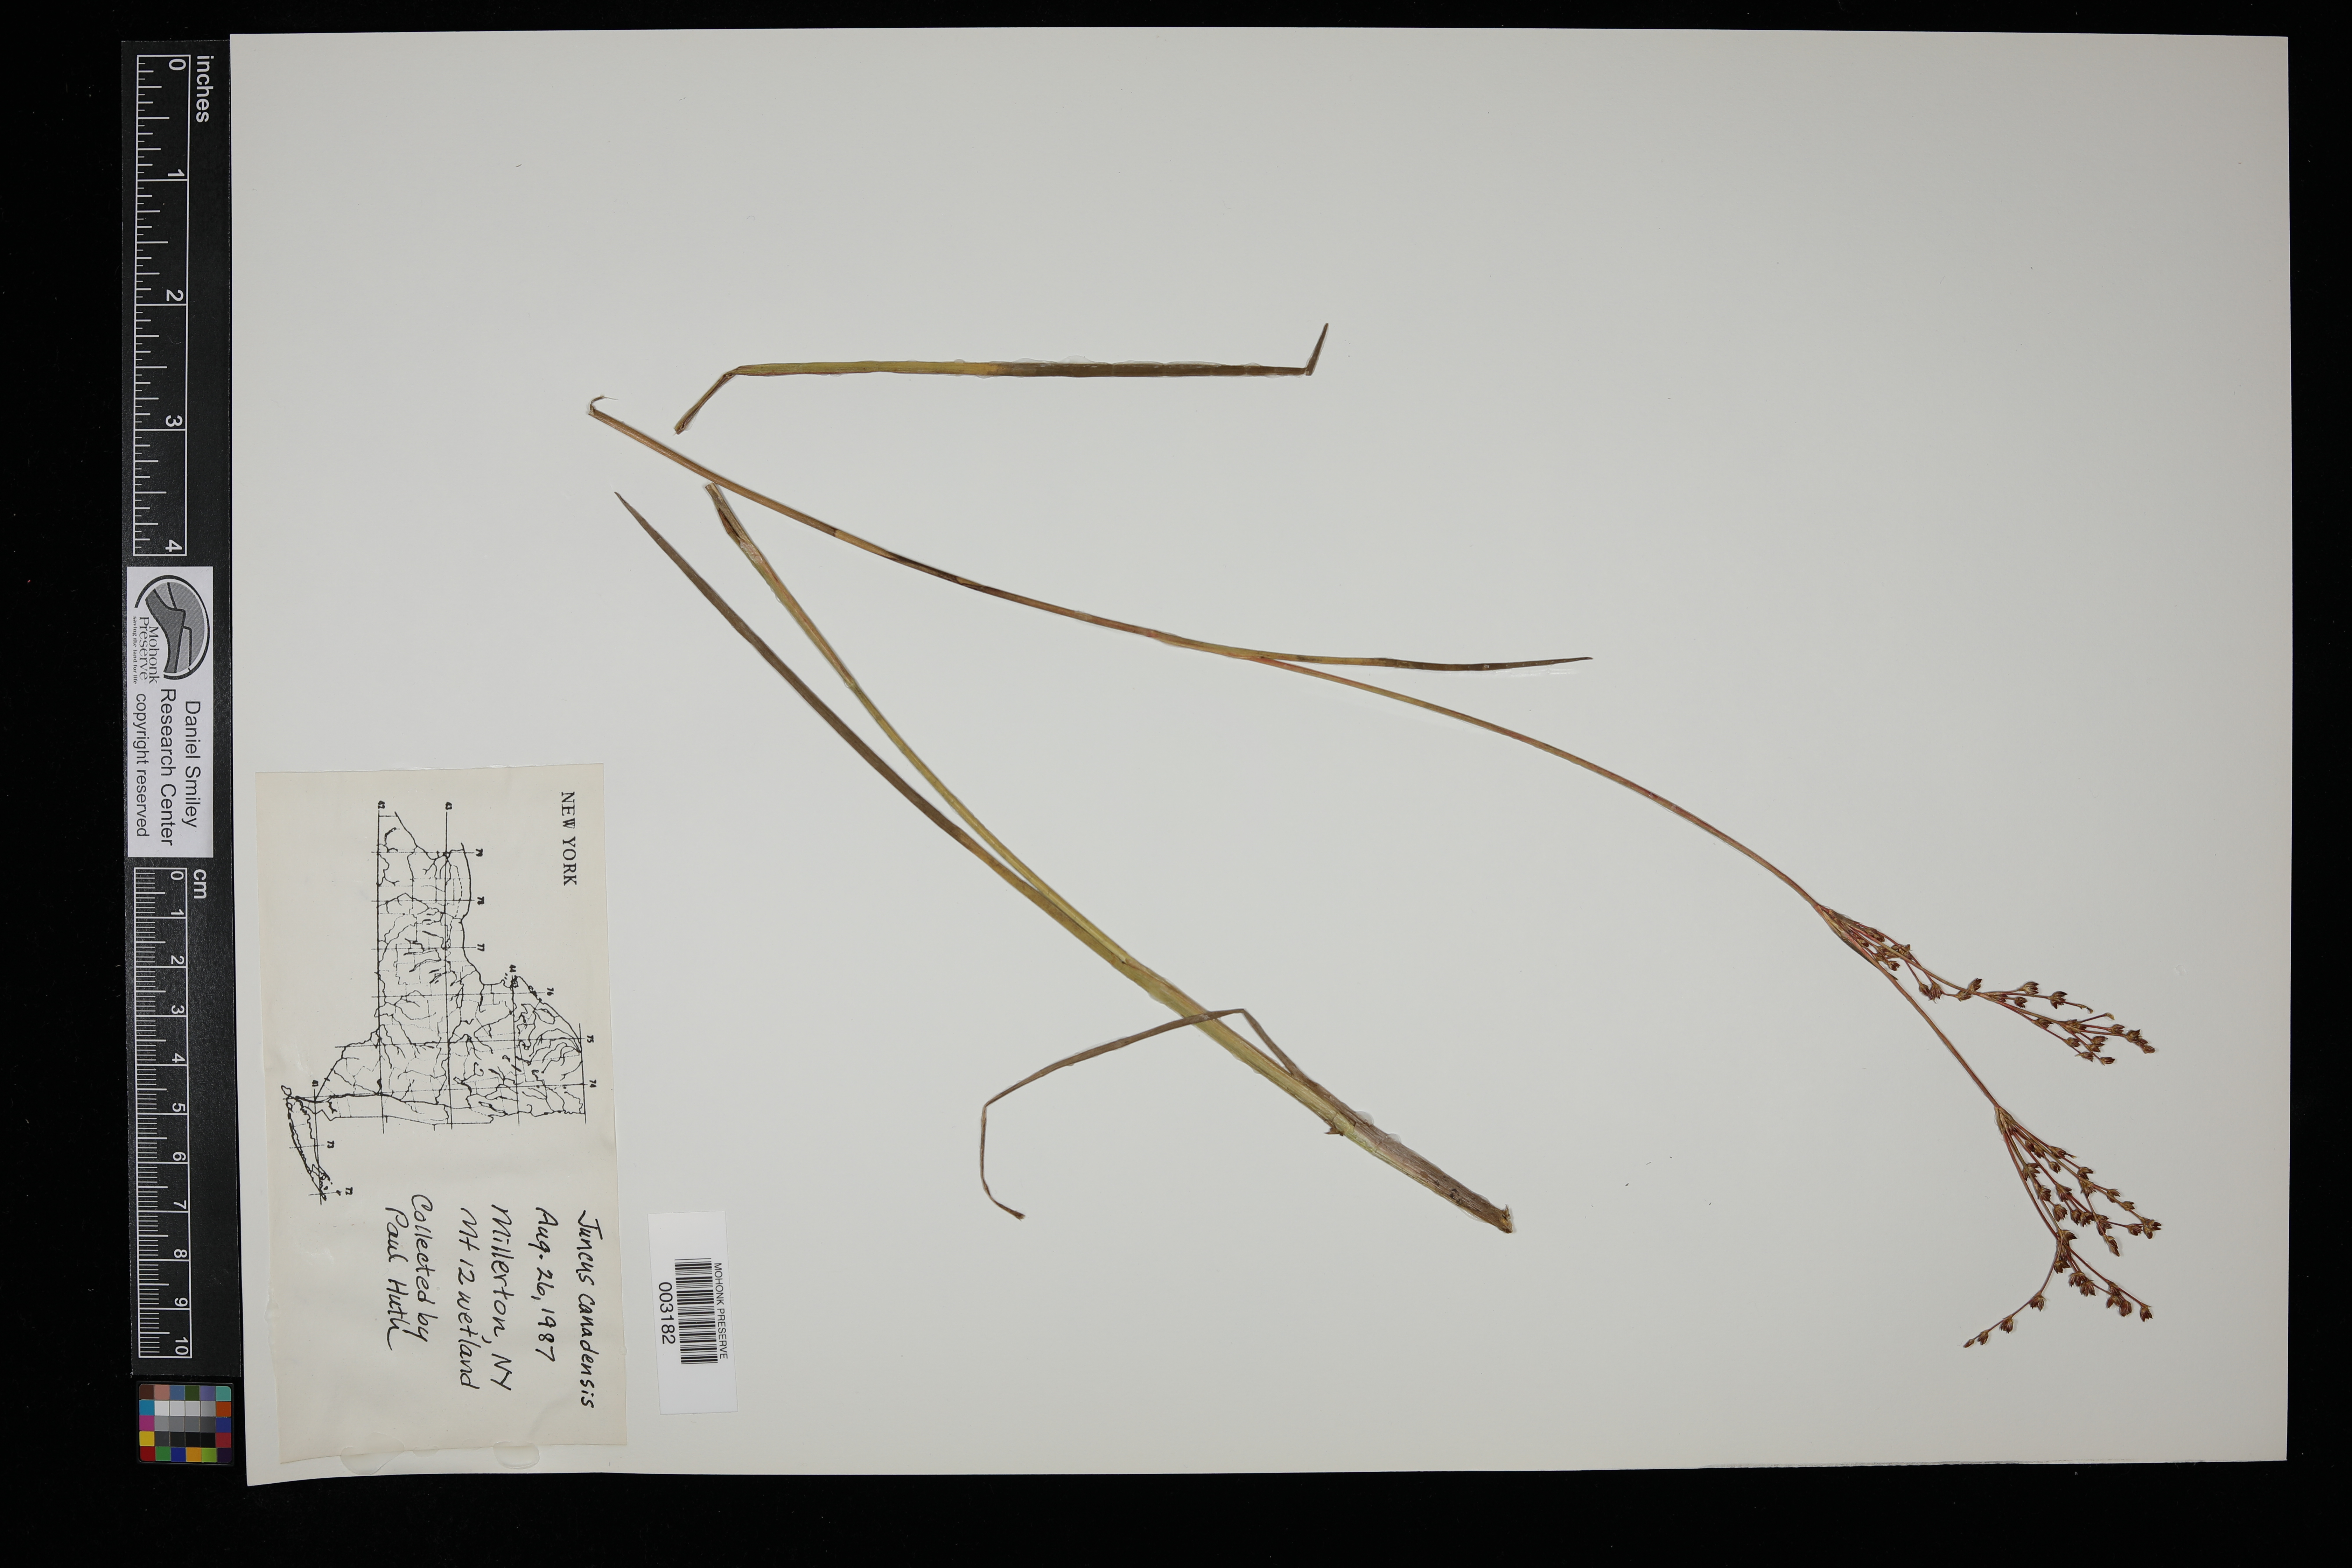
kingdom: Plantae
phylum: Tracheophyta
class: Liliopsida
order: Poales
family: Juncaceae
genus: Juncus
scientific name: Juncus canadensis
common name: Canada rush
